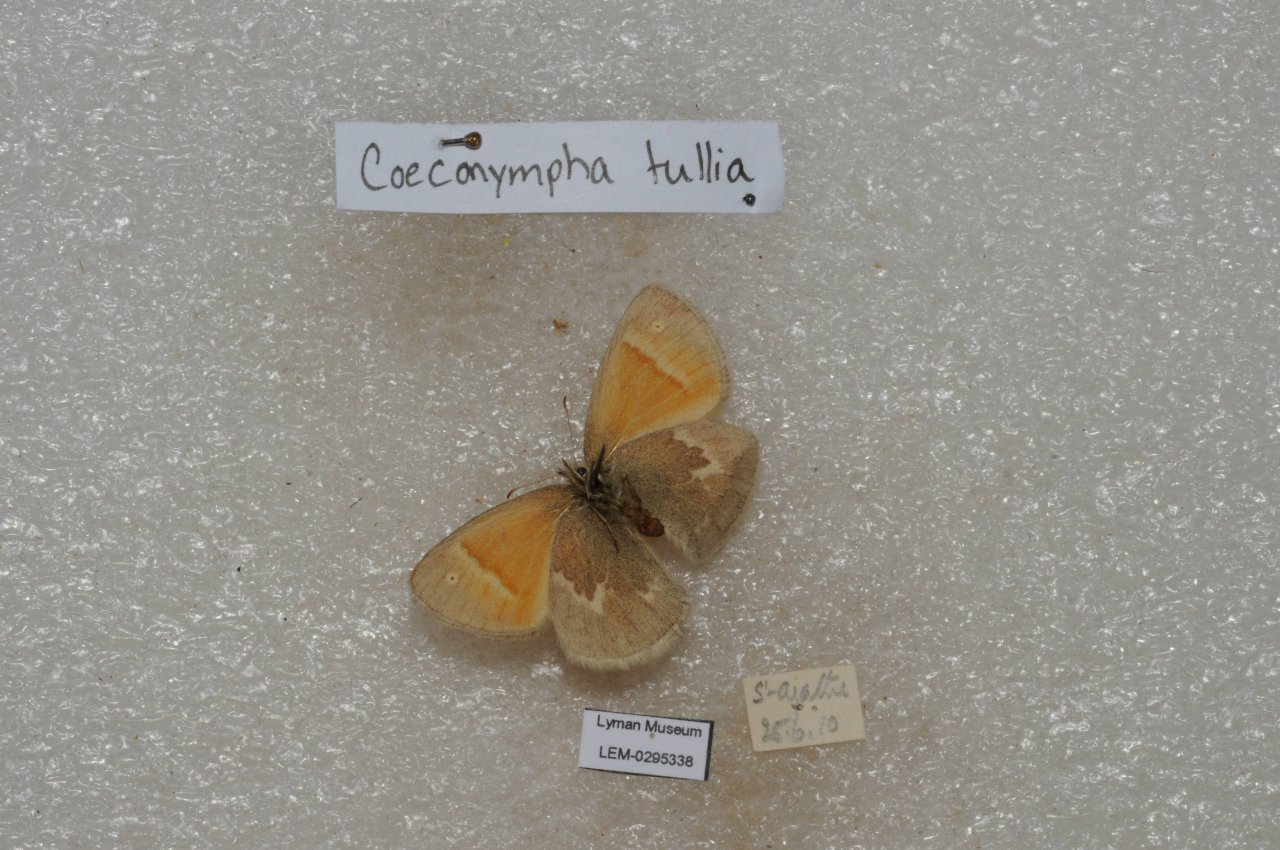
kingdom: Animalia
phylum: Arthropoda
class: Insecta
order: Lepidoptera
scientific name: Lepidoptera
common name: Butterflies
